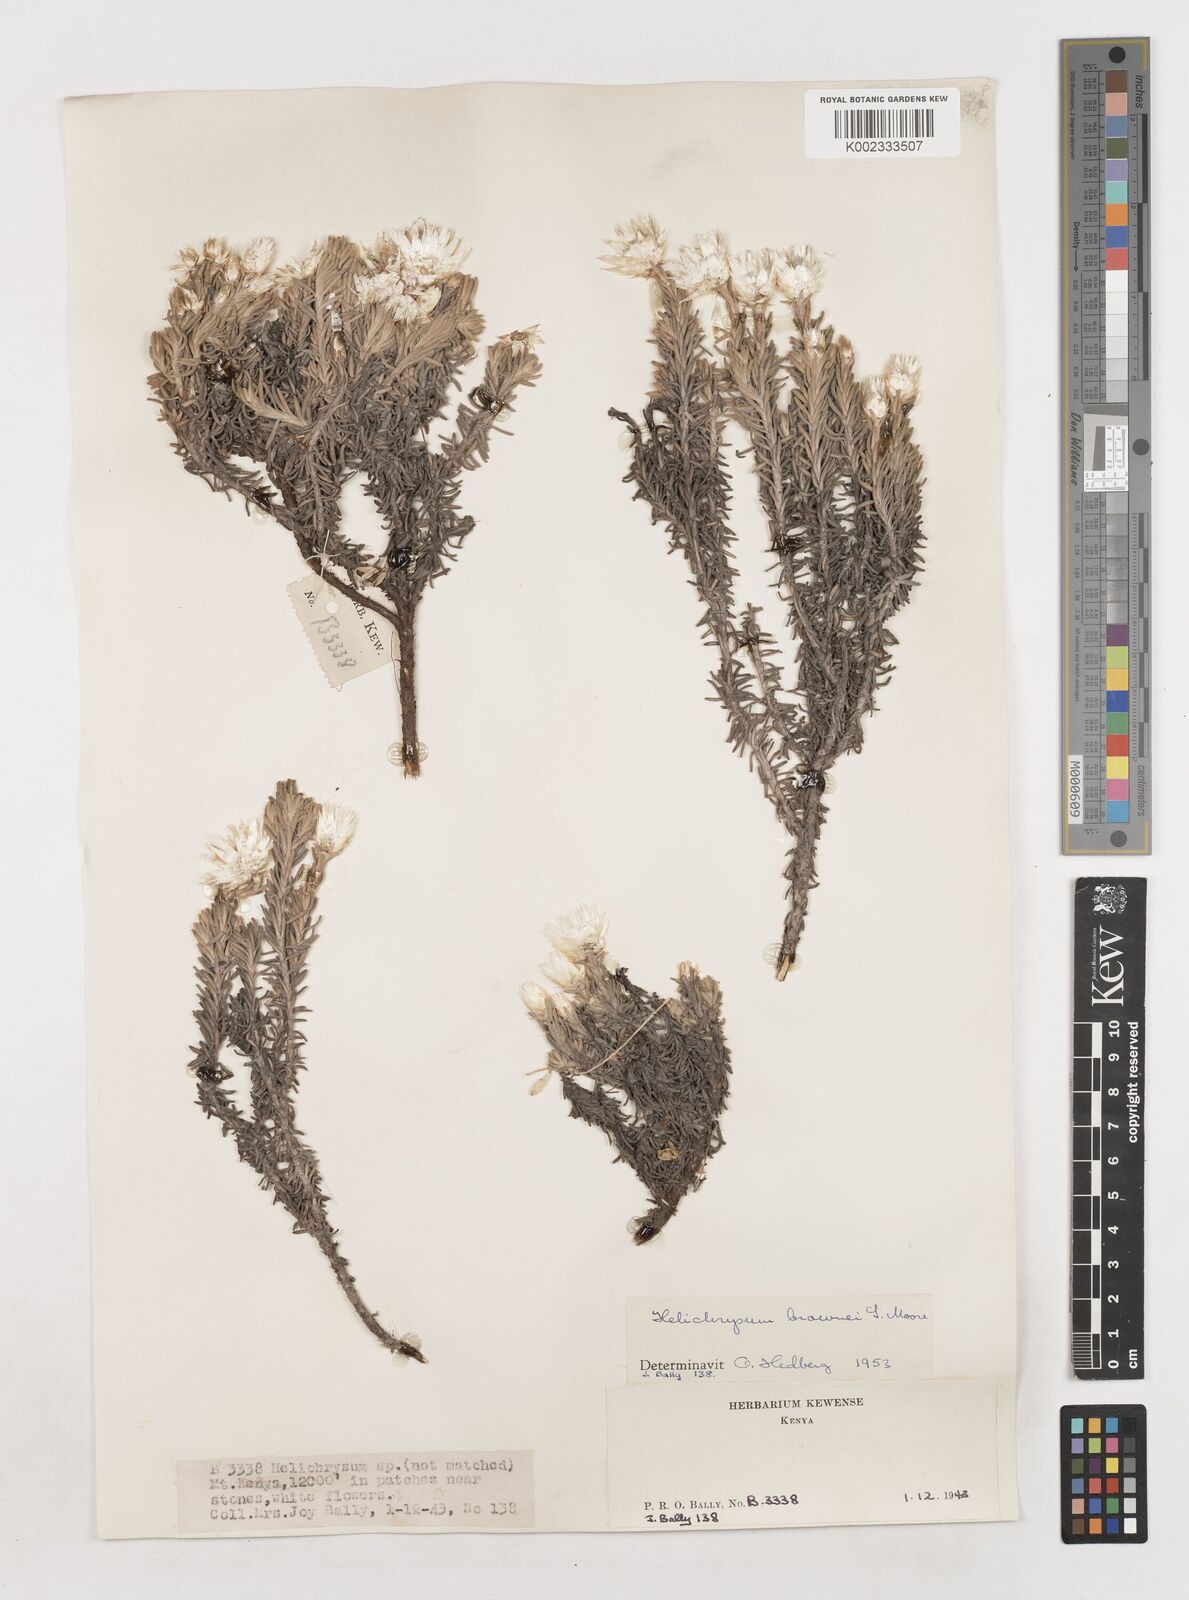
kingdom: Plantae
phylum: Tracheophyta
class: Magnoliopsida
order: Asterales
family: Asteraceae
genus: Helichrysum
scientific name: Helichrysum brownei
